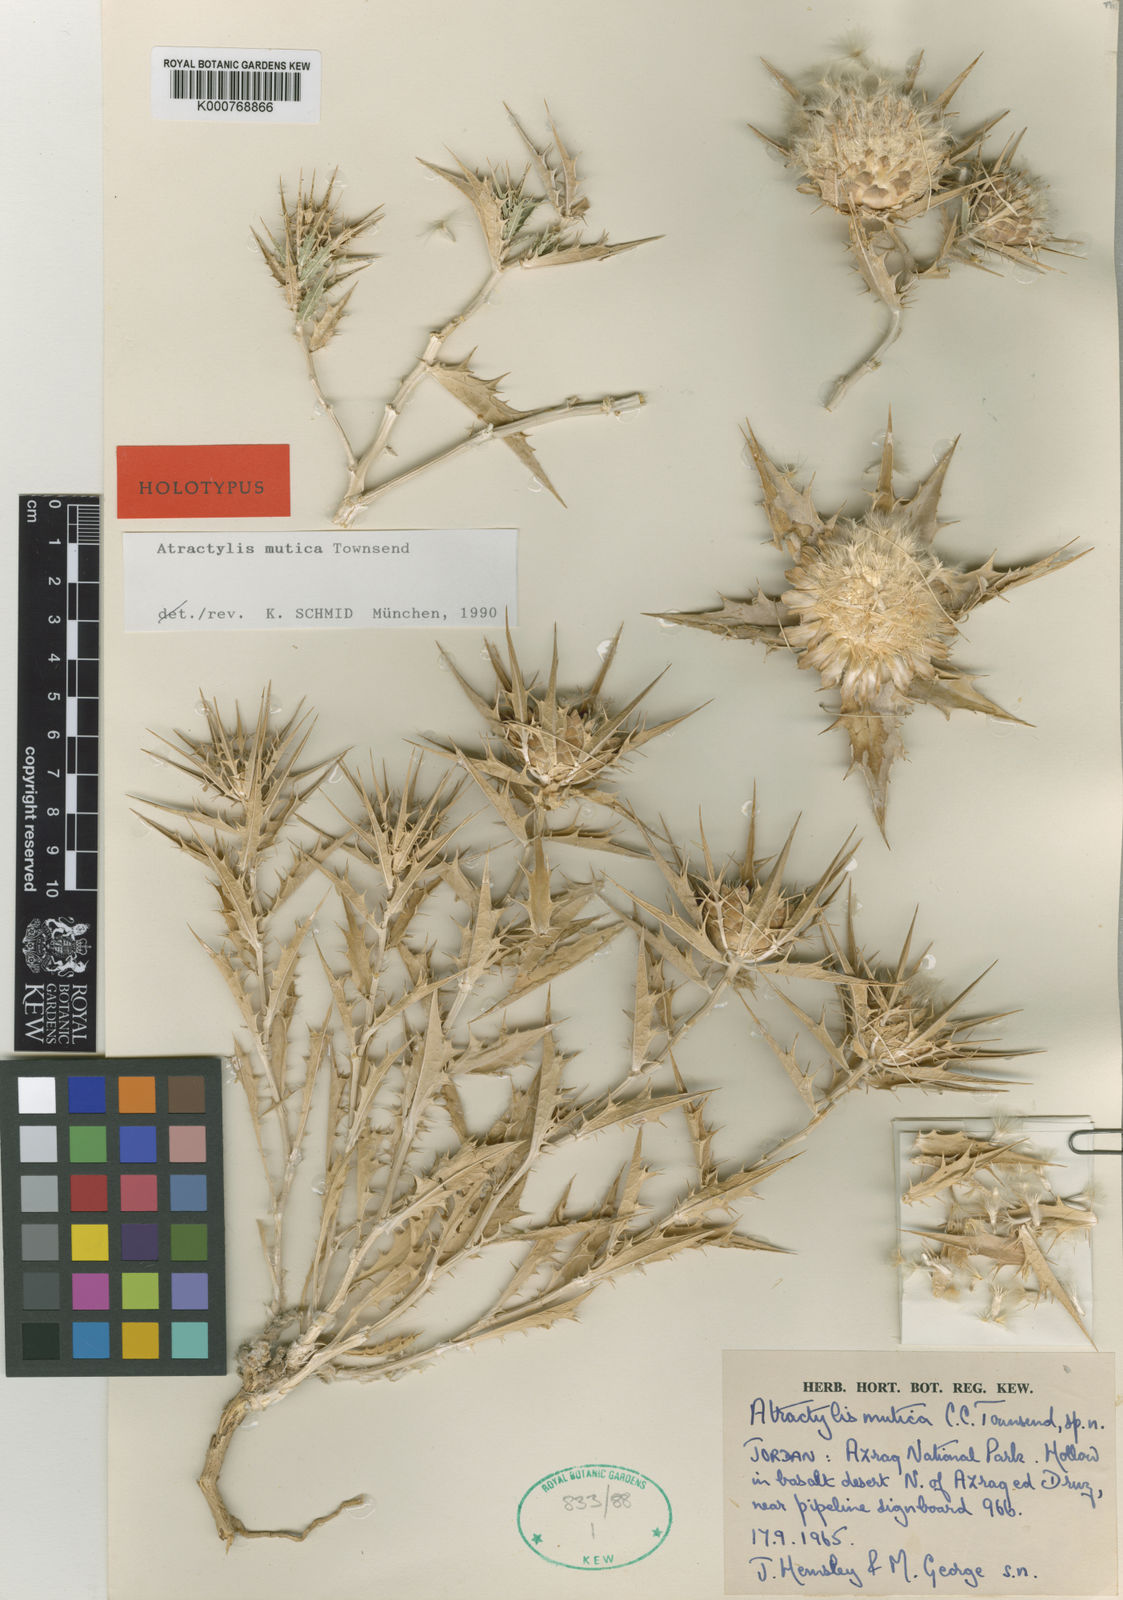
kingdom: Plantae
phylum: Tracheophyta
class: Magnoliopsida
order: Asterales
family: Asteraceae
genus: Atractylis
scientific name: Atractylis phaeolepis
